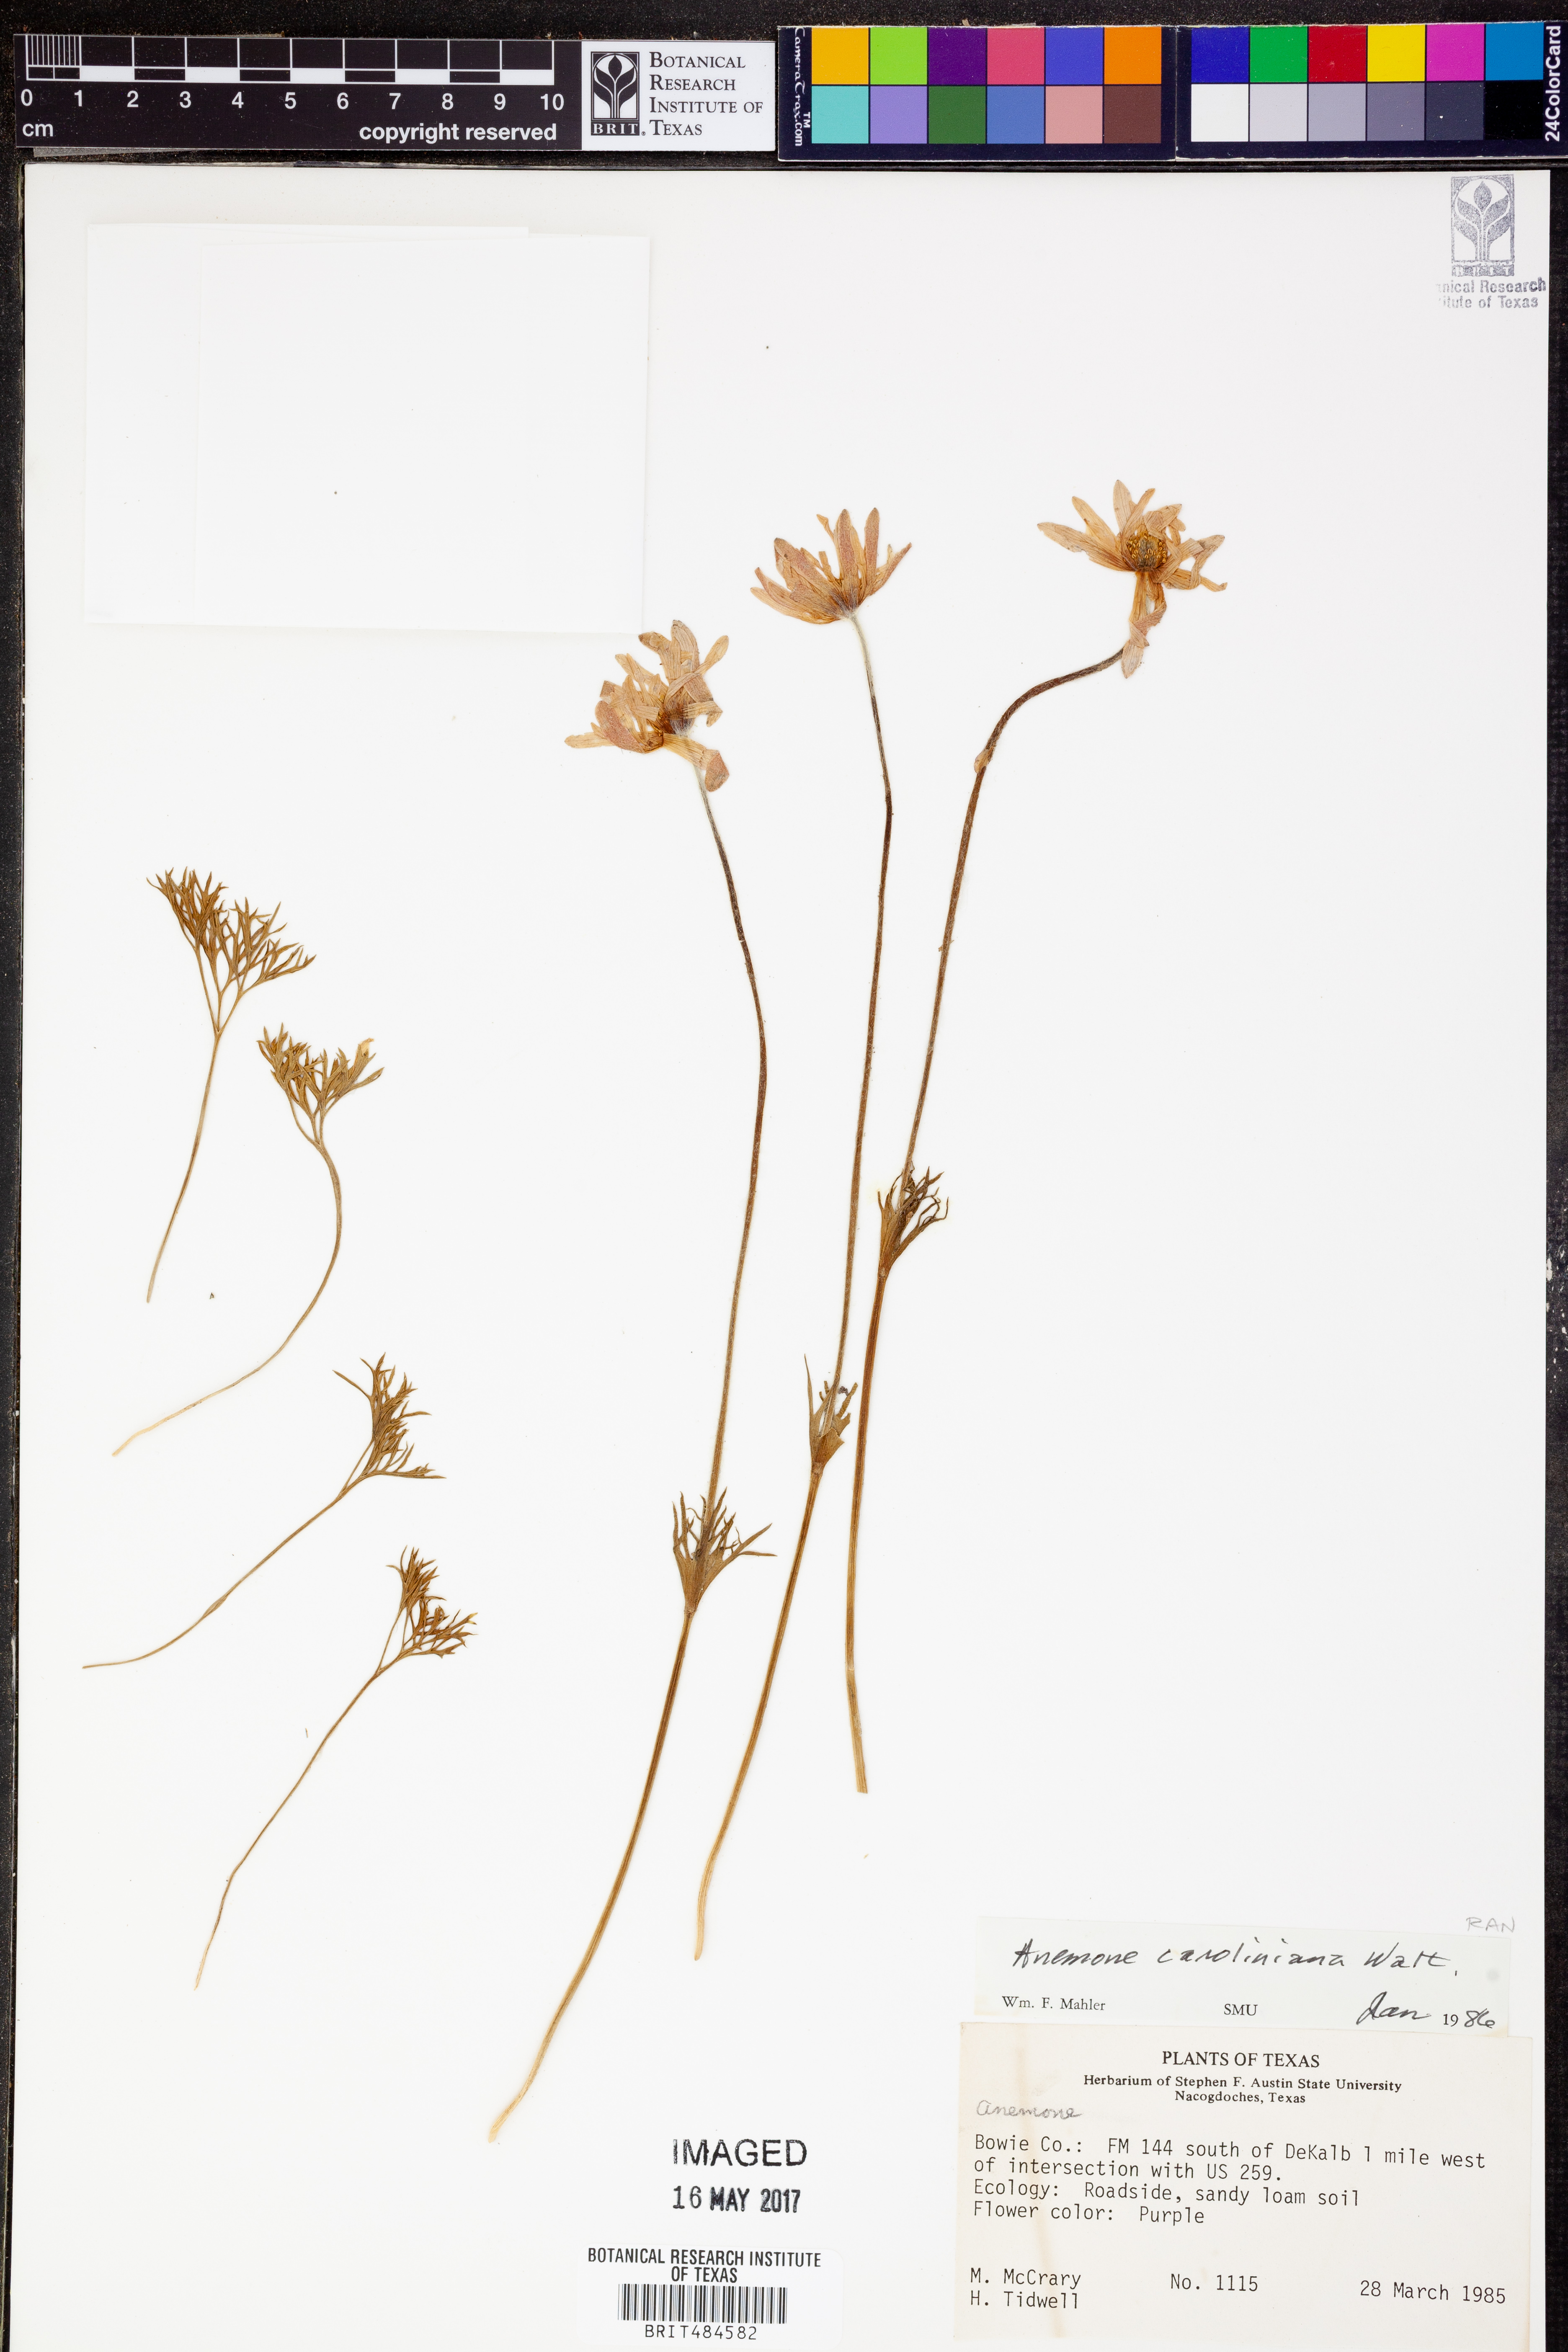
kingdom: Plantae
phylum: Tracheophyta
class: Magnoliopsida
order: Ranunculales
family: Ranunculaceae
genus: Anemone
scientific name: Anemone caroliniana
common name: Carolina anemone
